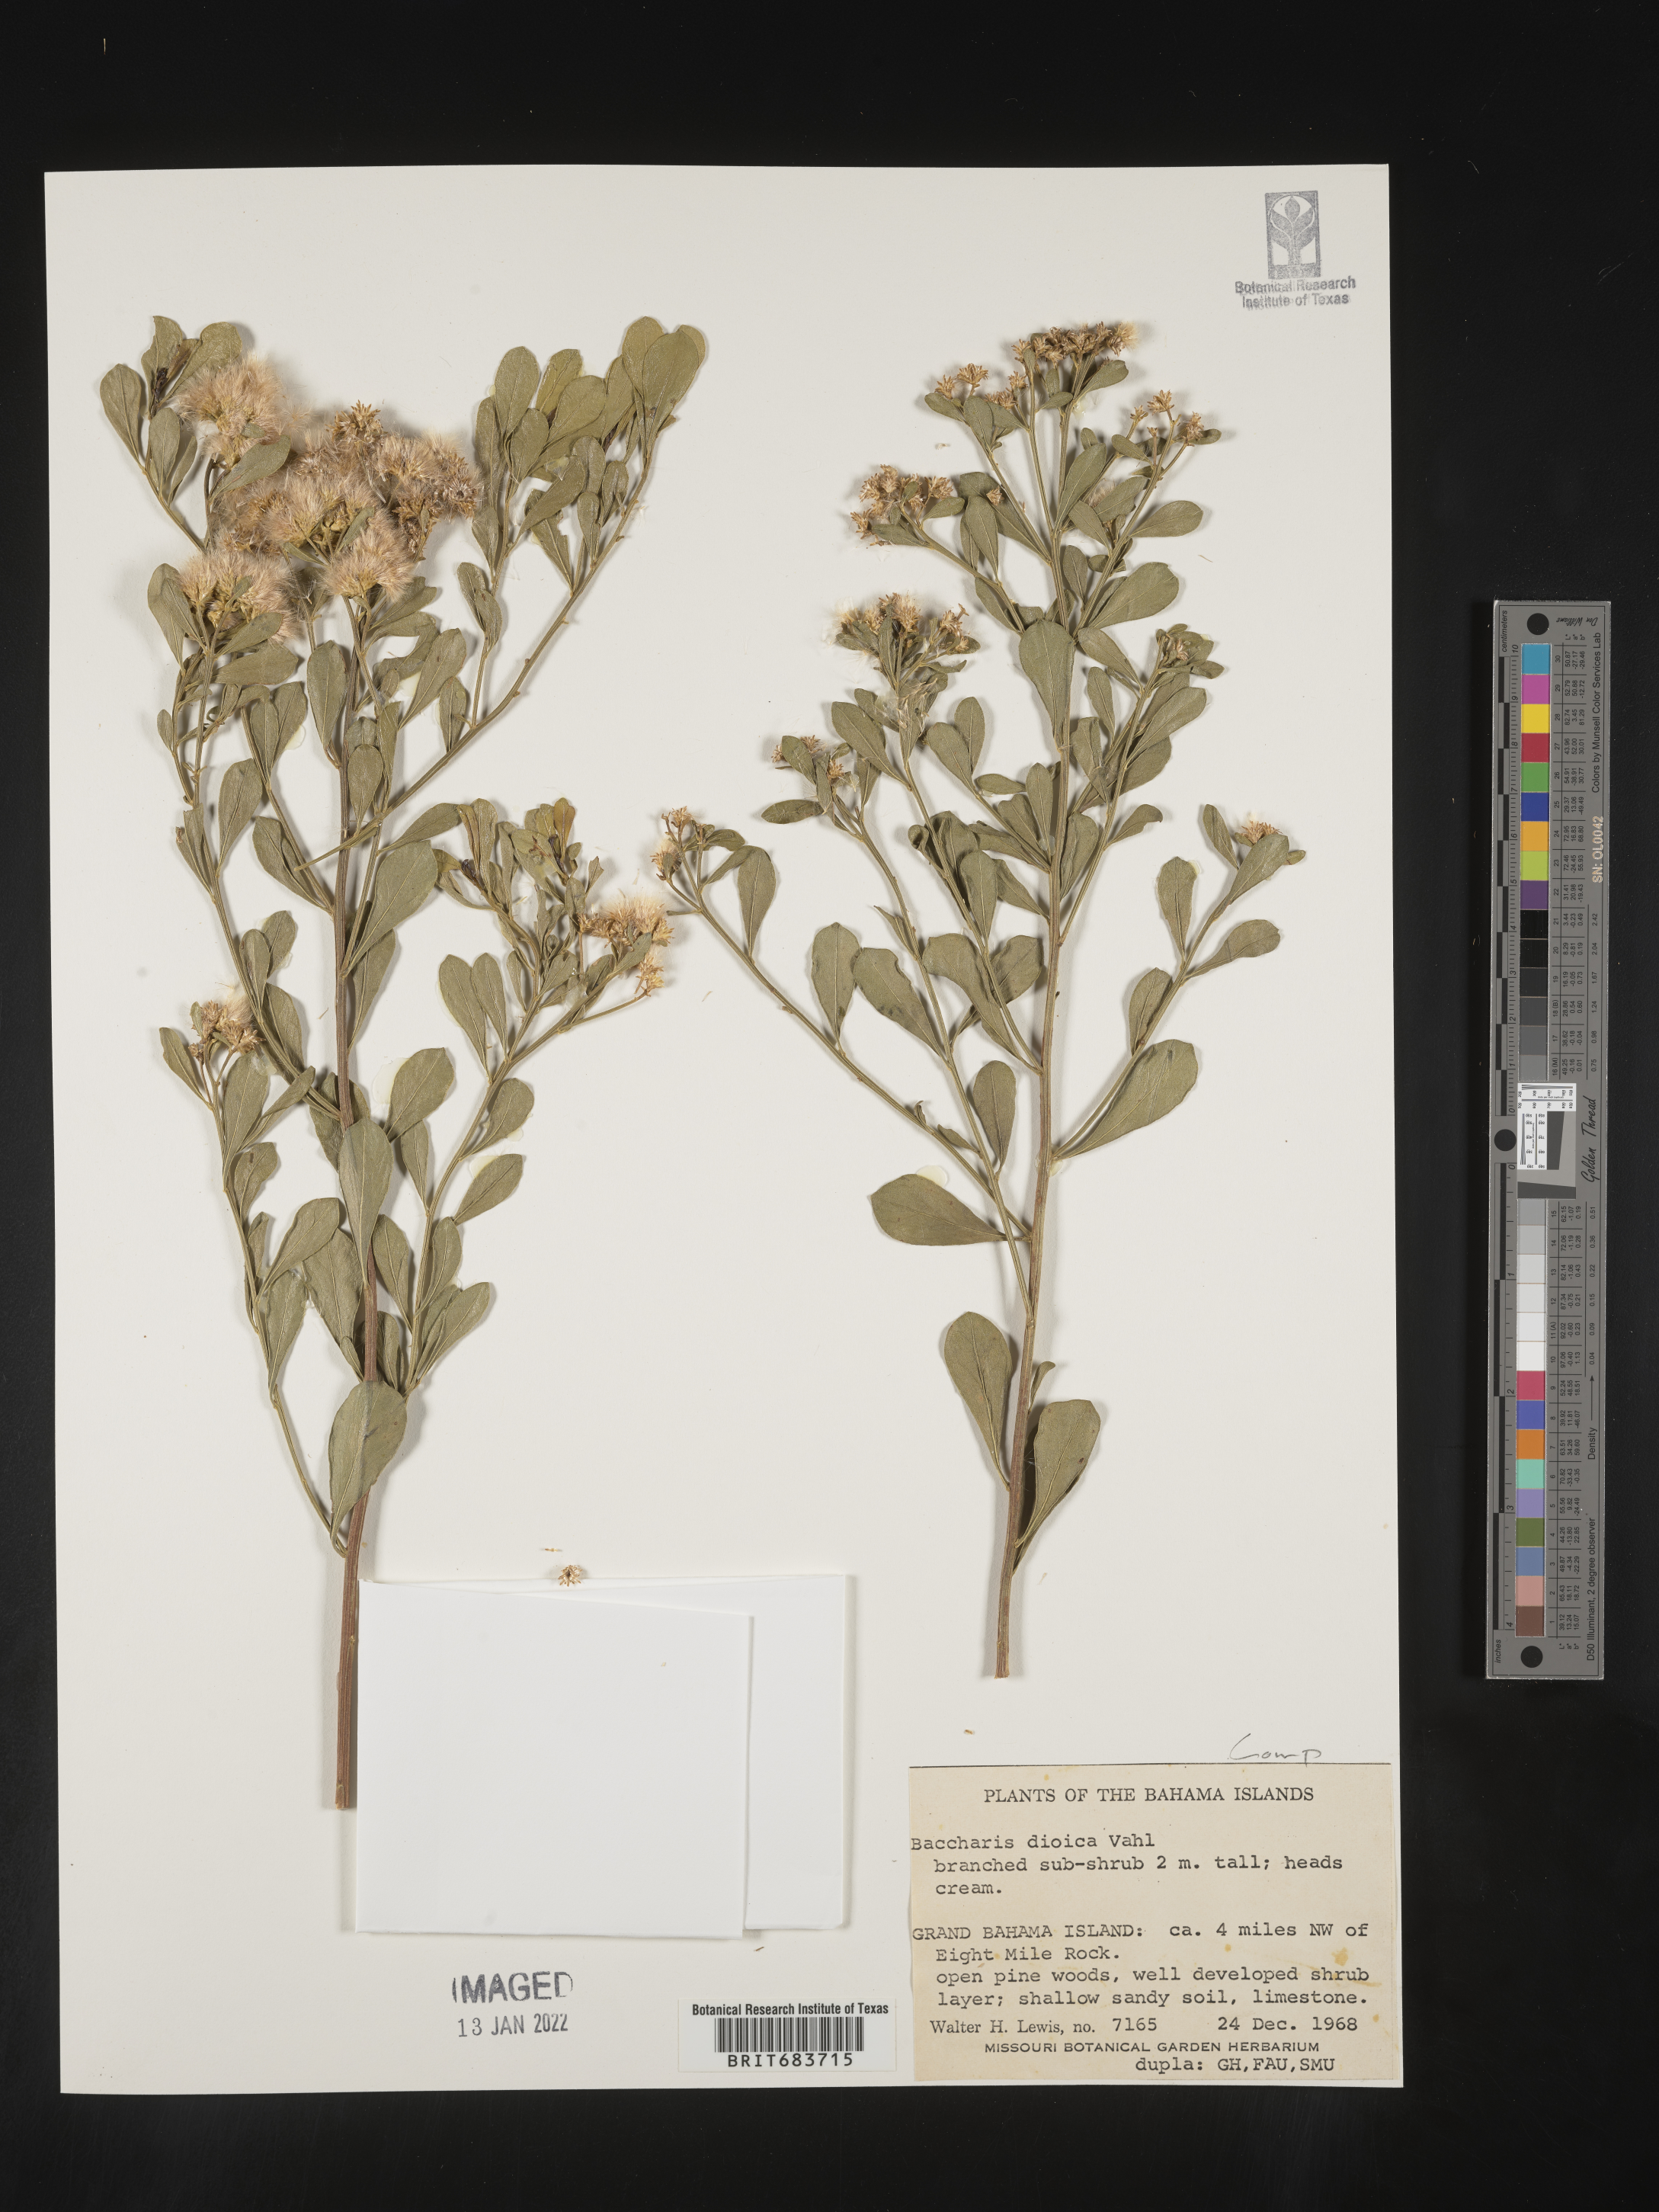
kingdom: Plantae
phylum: Tracheophyta
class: Magnoliopsida
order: Asterales
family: Asteraceae
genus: Baccharis
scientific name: Baccharis
